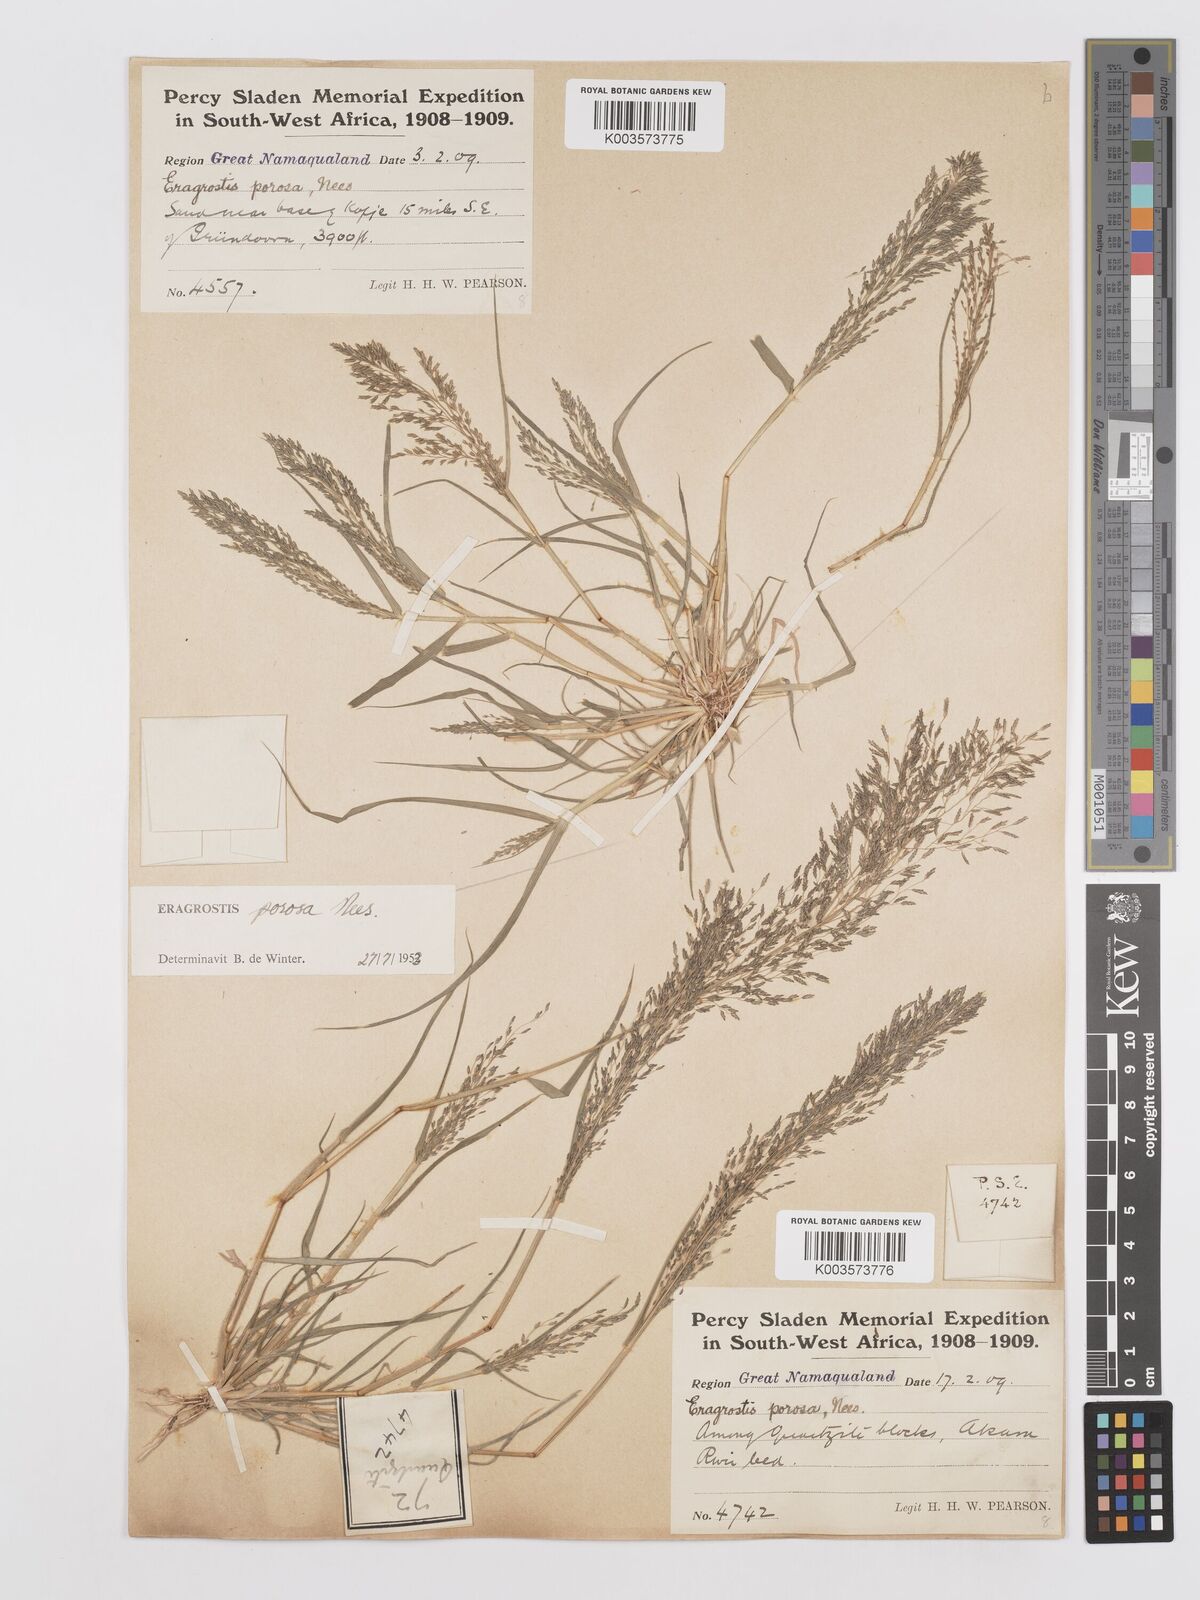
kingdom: Plantae
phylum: Tracheophyta
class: Liliopsida
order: Poales
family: Poaceae
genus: Eragrostis
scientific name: Eragrostis porosa
